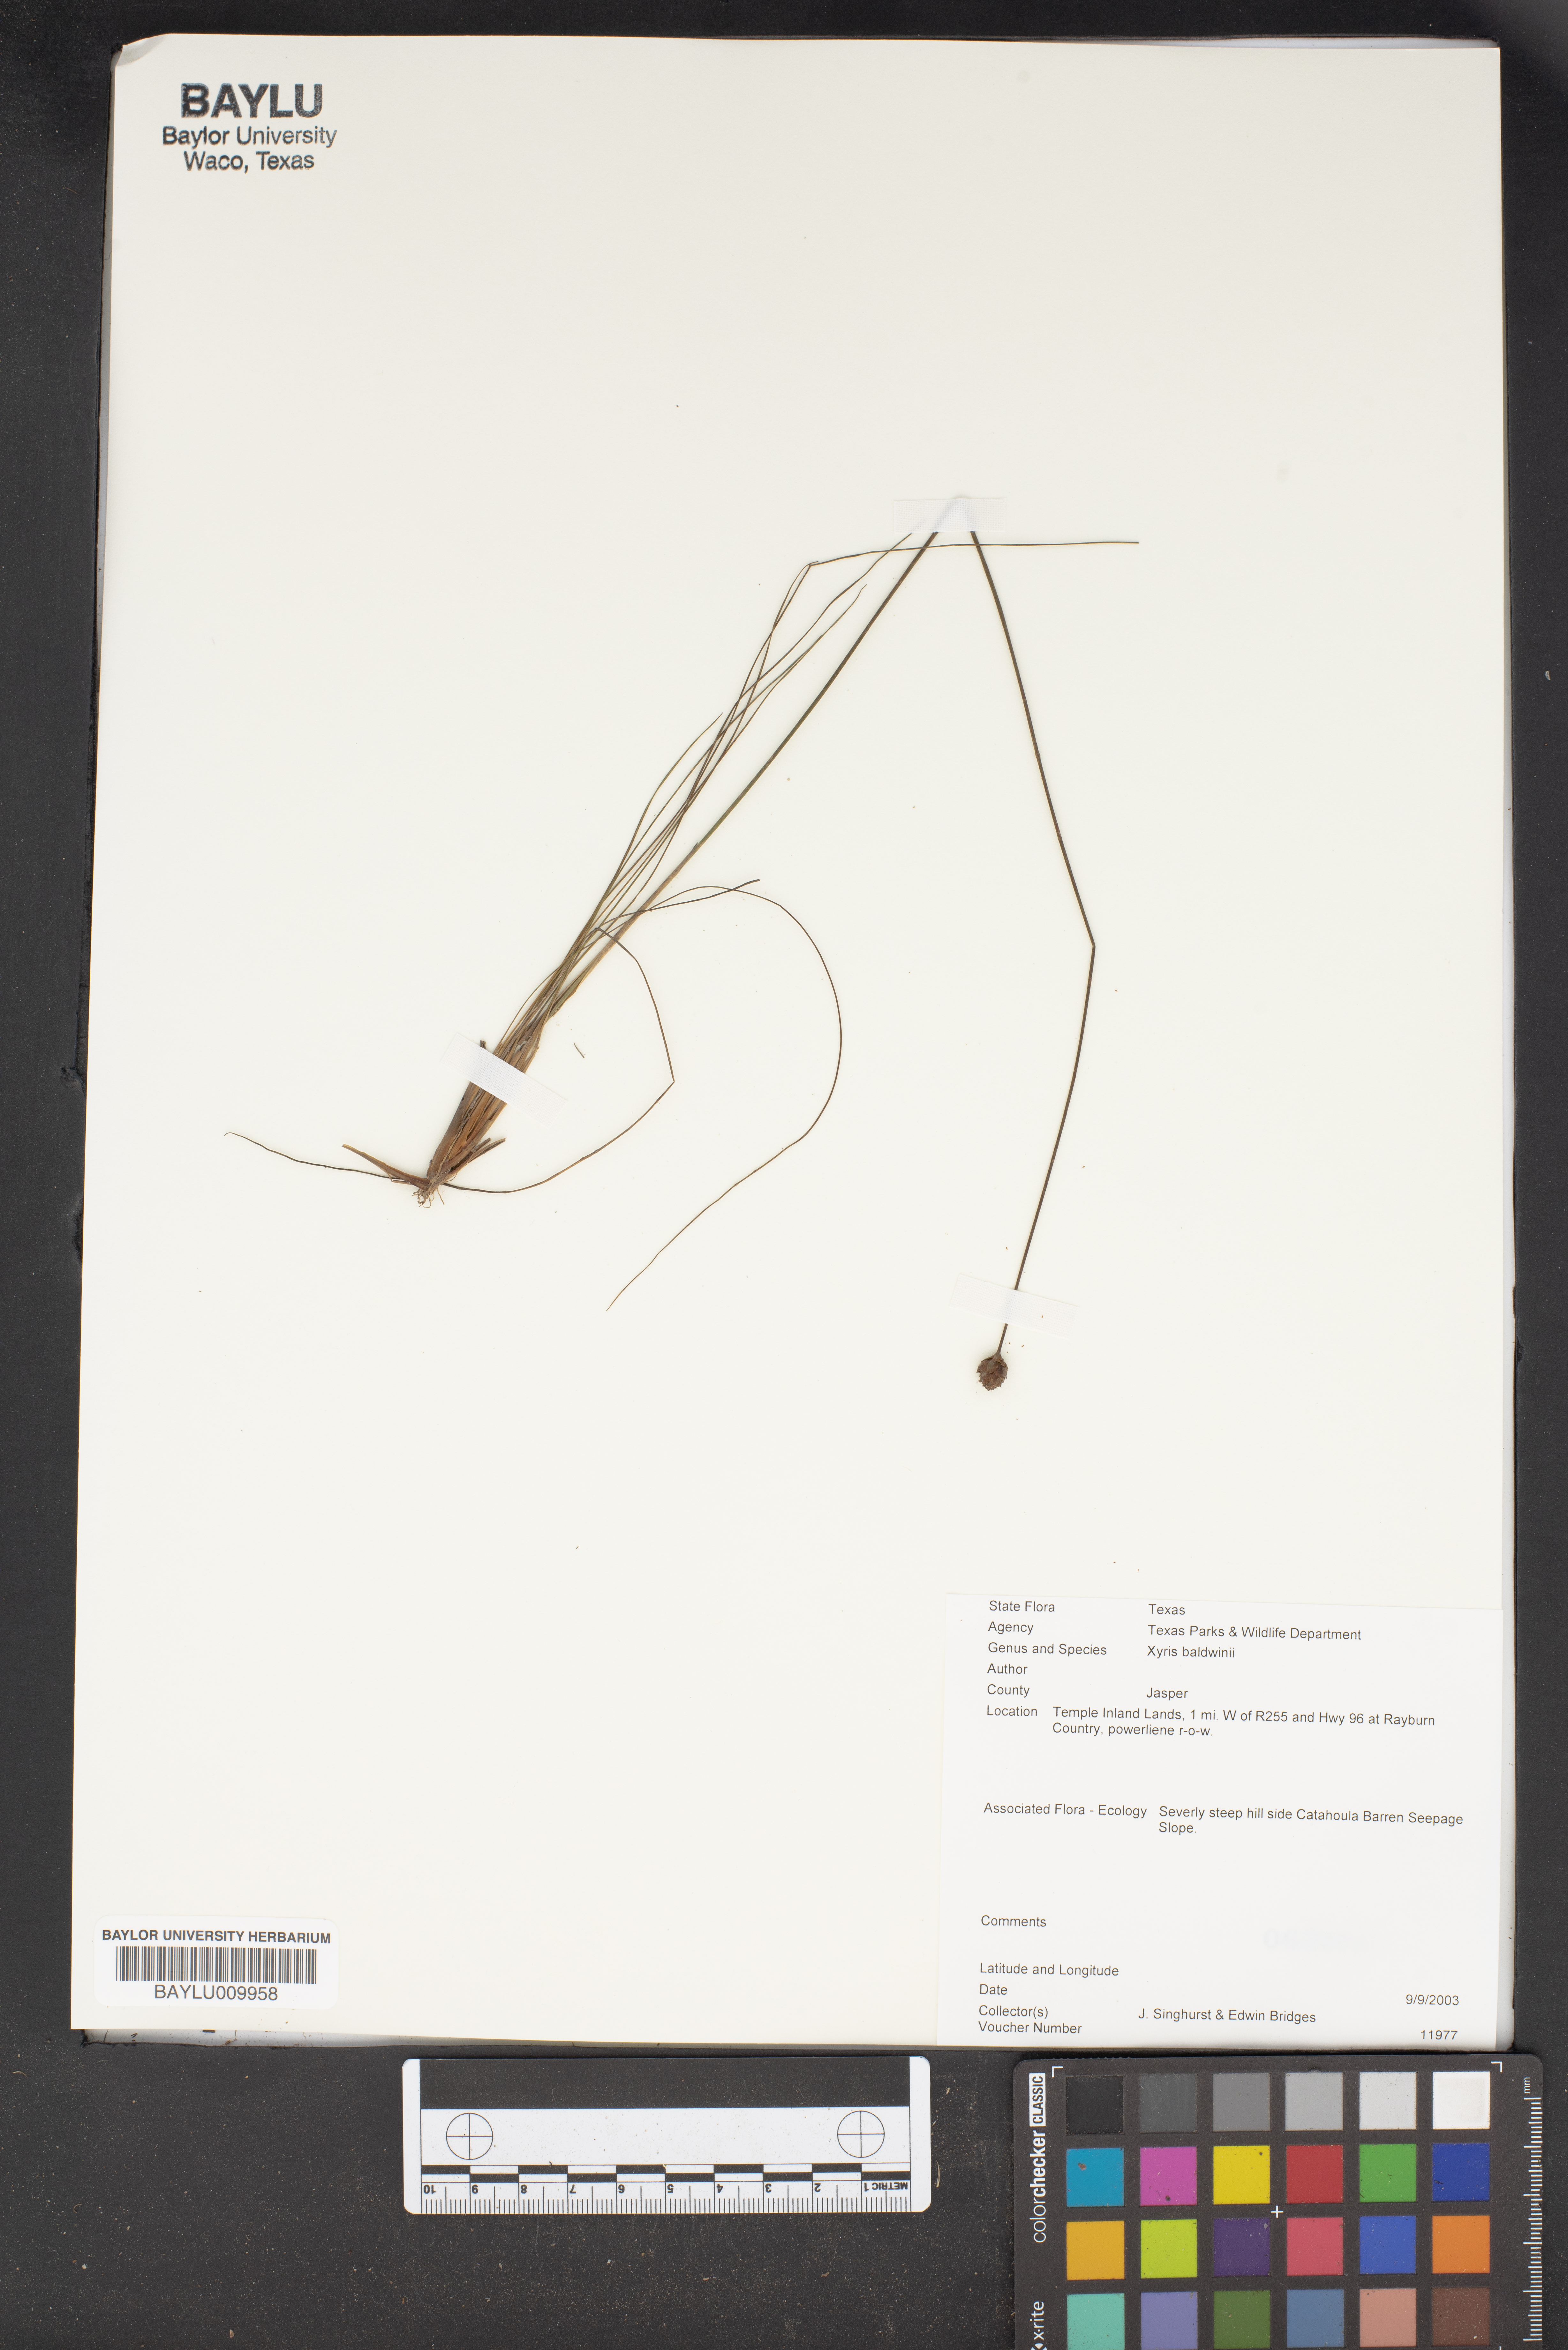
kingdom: Plantae
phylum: Tracheophyta
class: Liliopsida
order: Poales
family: Xyridaceae
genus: Xyris
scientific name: Xyris
